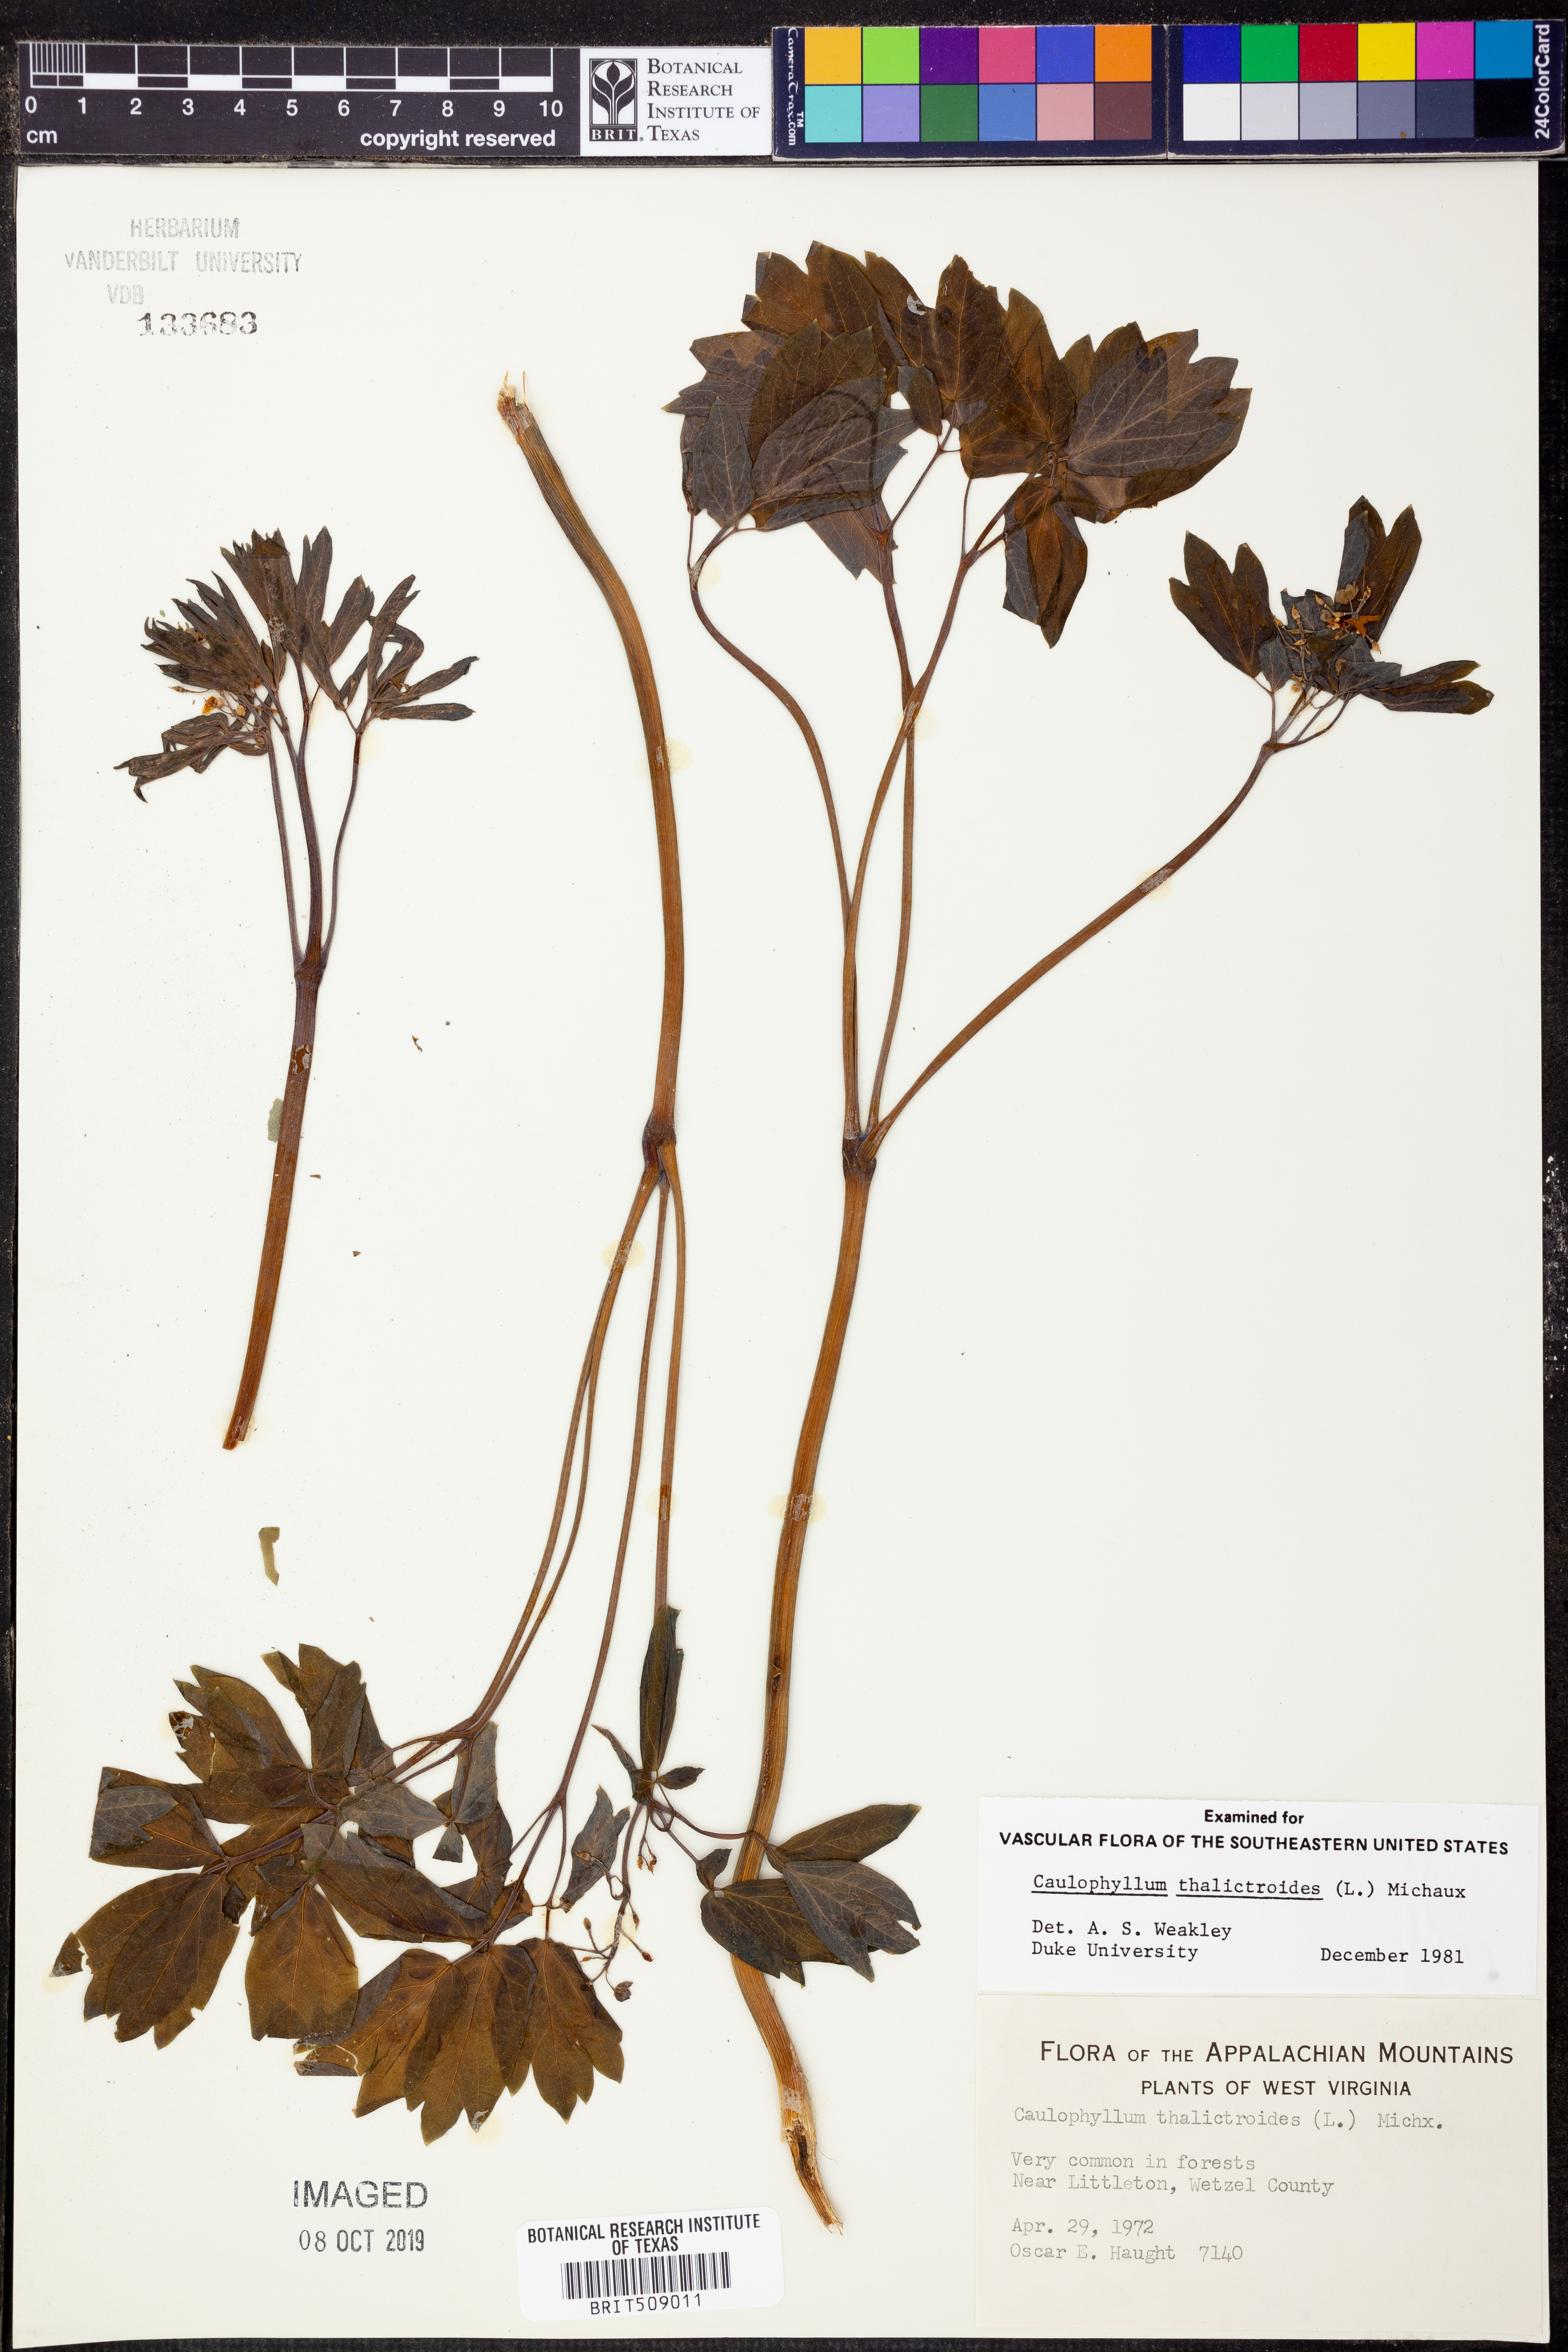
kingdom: Plantae
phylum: Tracheophyta
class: Magnoliopsida
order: Ranunculales
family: Berberidaceae
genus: Caulophyllum
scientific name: Caulophyllum thalictroides
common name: Blue cohosh
